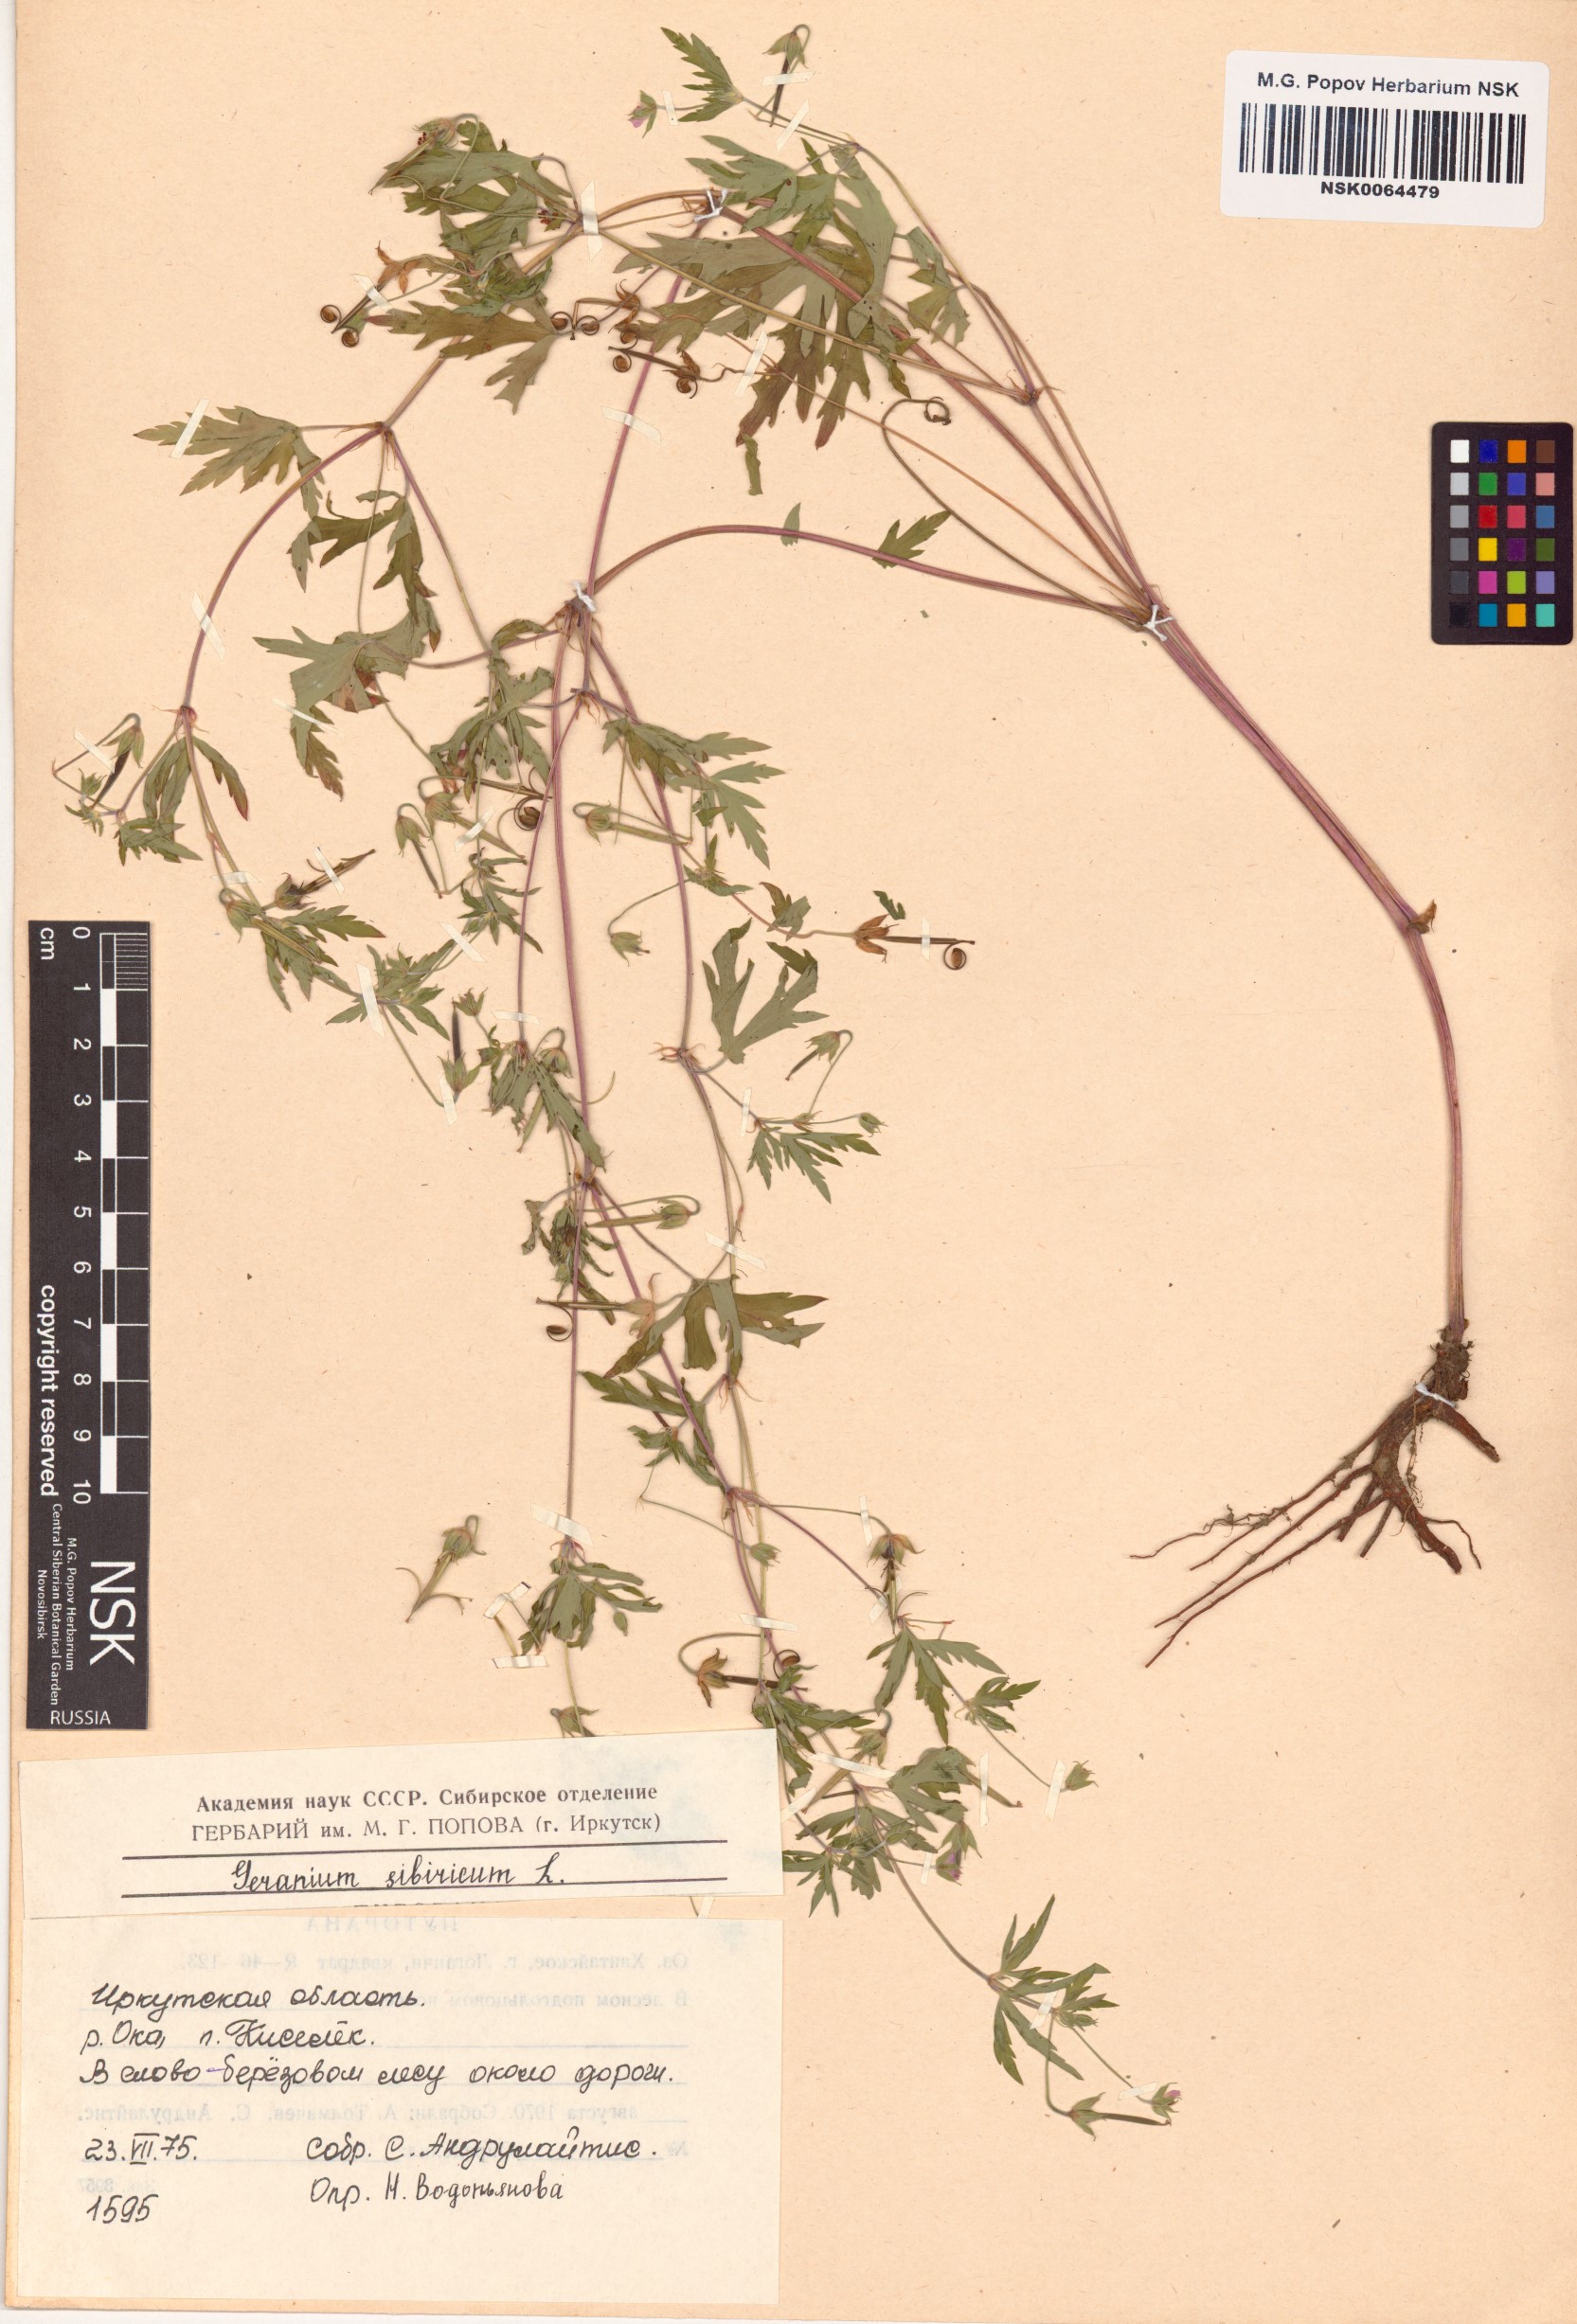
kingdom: Plantae
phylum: Tracheophyta
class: Magnoliopsida
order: Geraniales
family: Geraniaceae
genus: Geranium
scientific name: Geranium sibiricum
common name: Siberian crane's-bill
